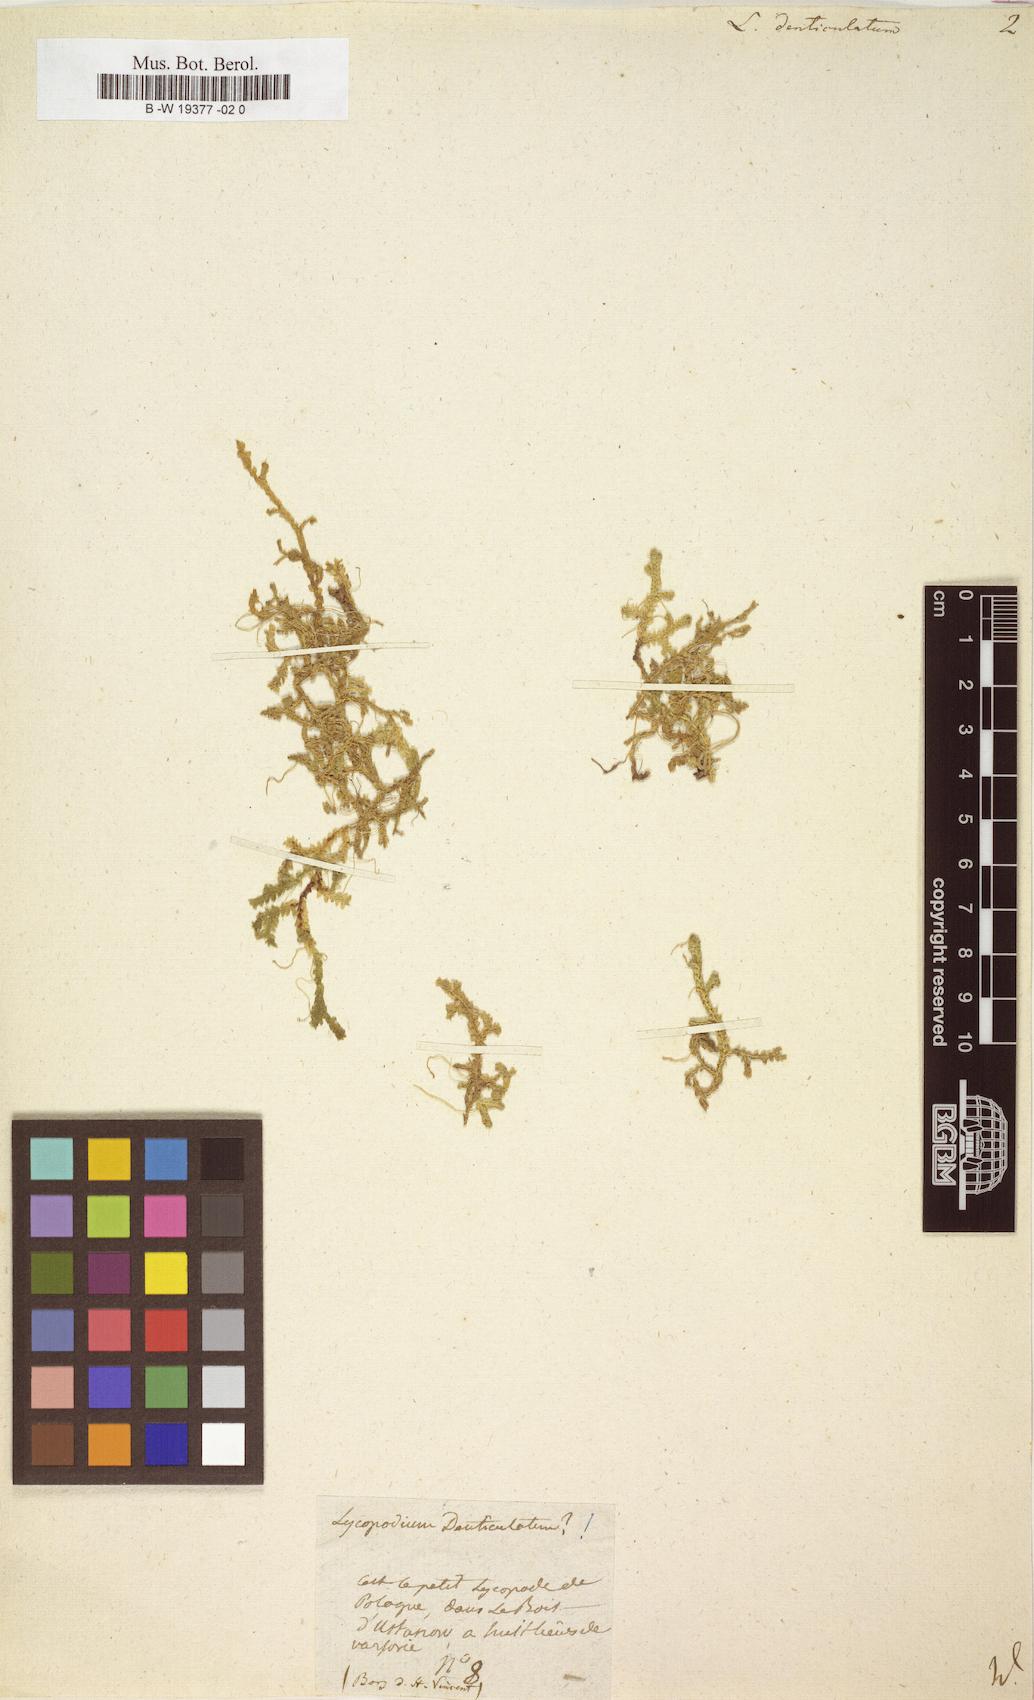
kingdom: Plantae
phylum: Tracheophyta
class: Lycopodiopsida
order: Selaginellales
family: Selaginellaceae
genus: Selaginella
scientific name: Selaginella denticulata
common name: Toothed-leaved clubmoss
